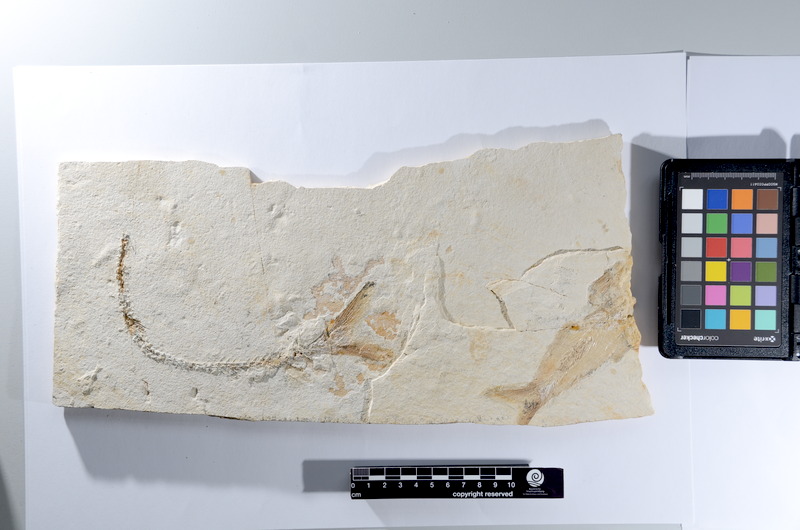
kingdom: Animalia
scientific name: Animalia
